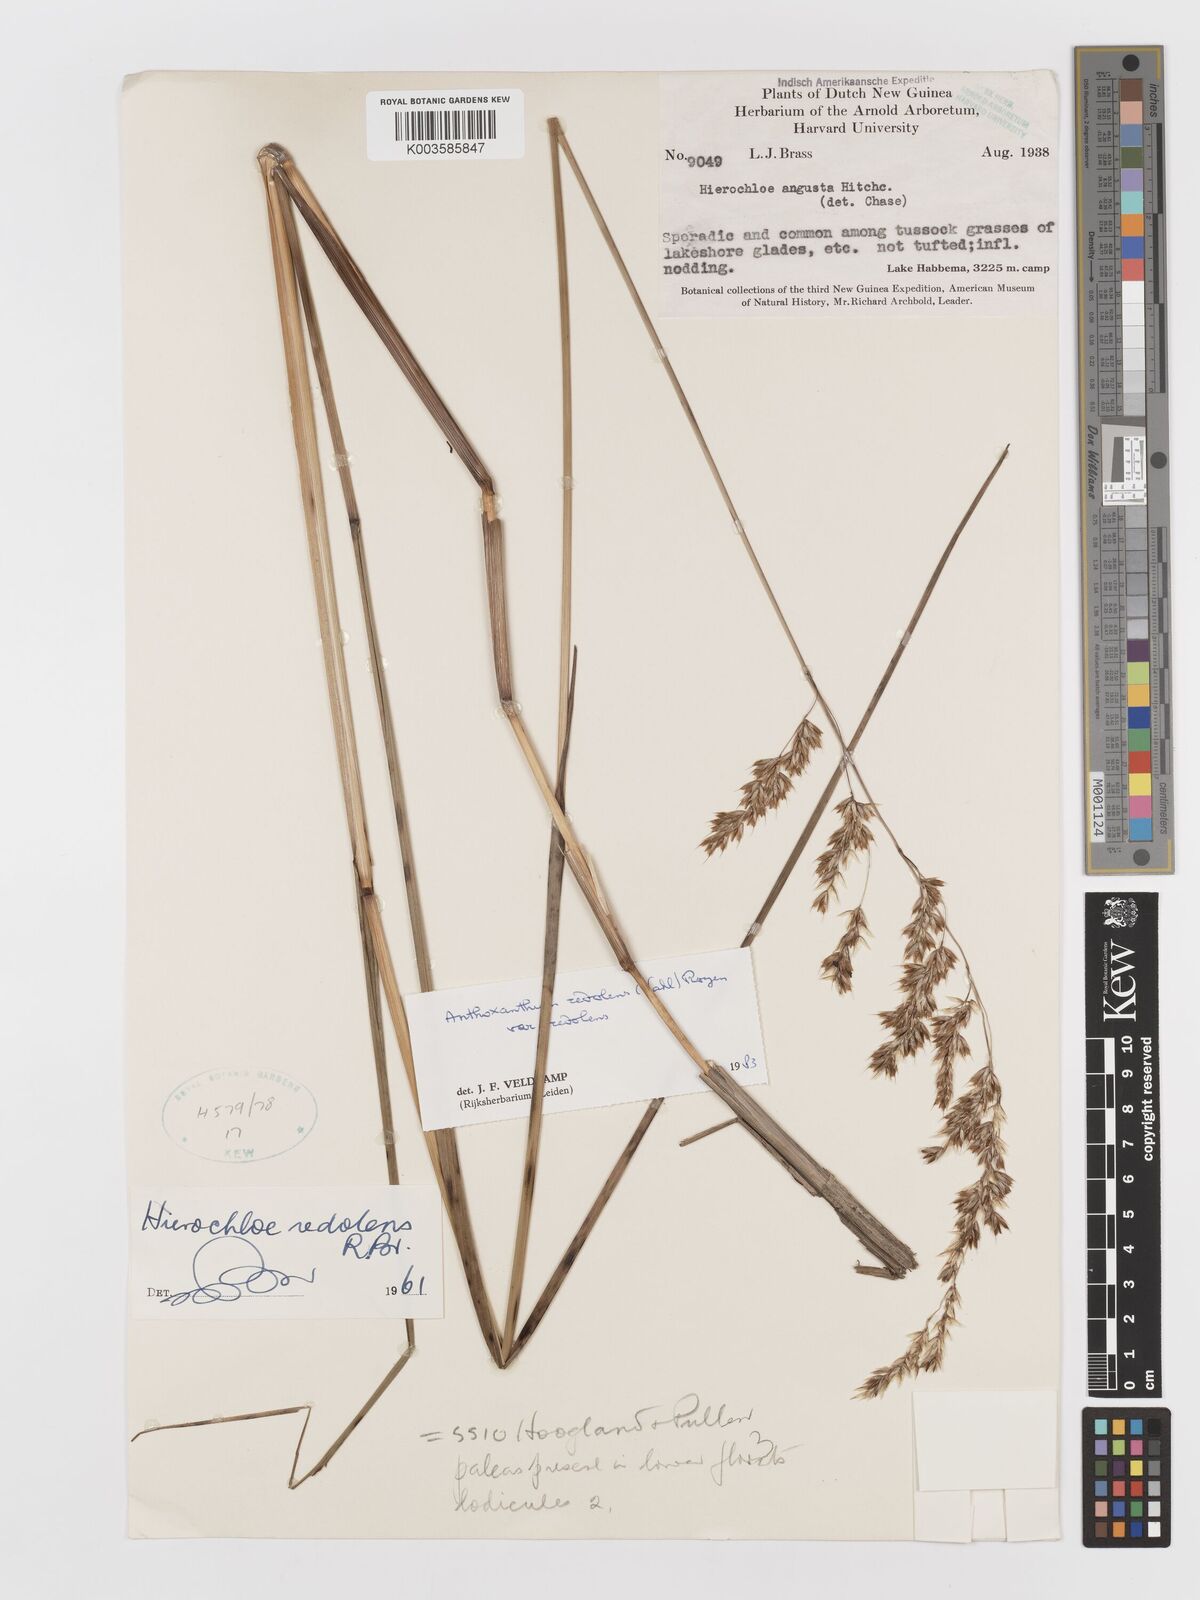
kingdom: Plantae
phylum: Tracheophyta
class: Liliopsida
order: Poales
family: Poaceae
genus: Anthoxanthum
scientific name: Anthoxanthum redolens
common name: Sweet holy grass
